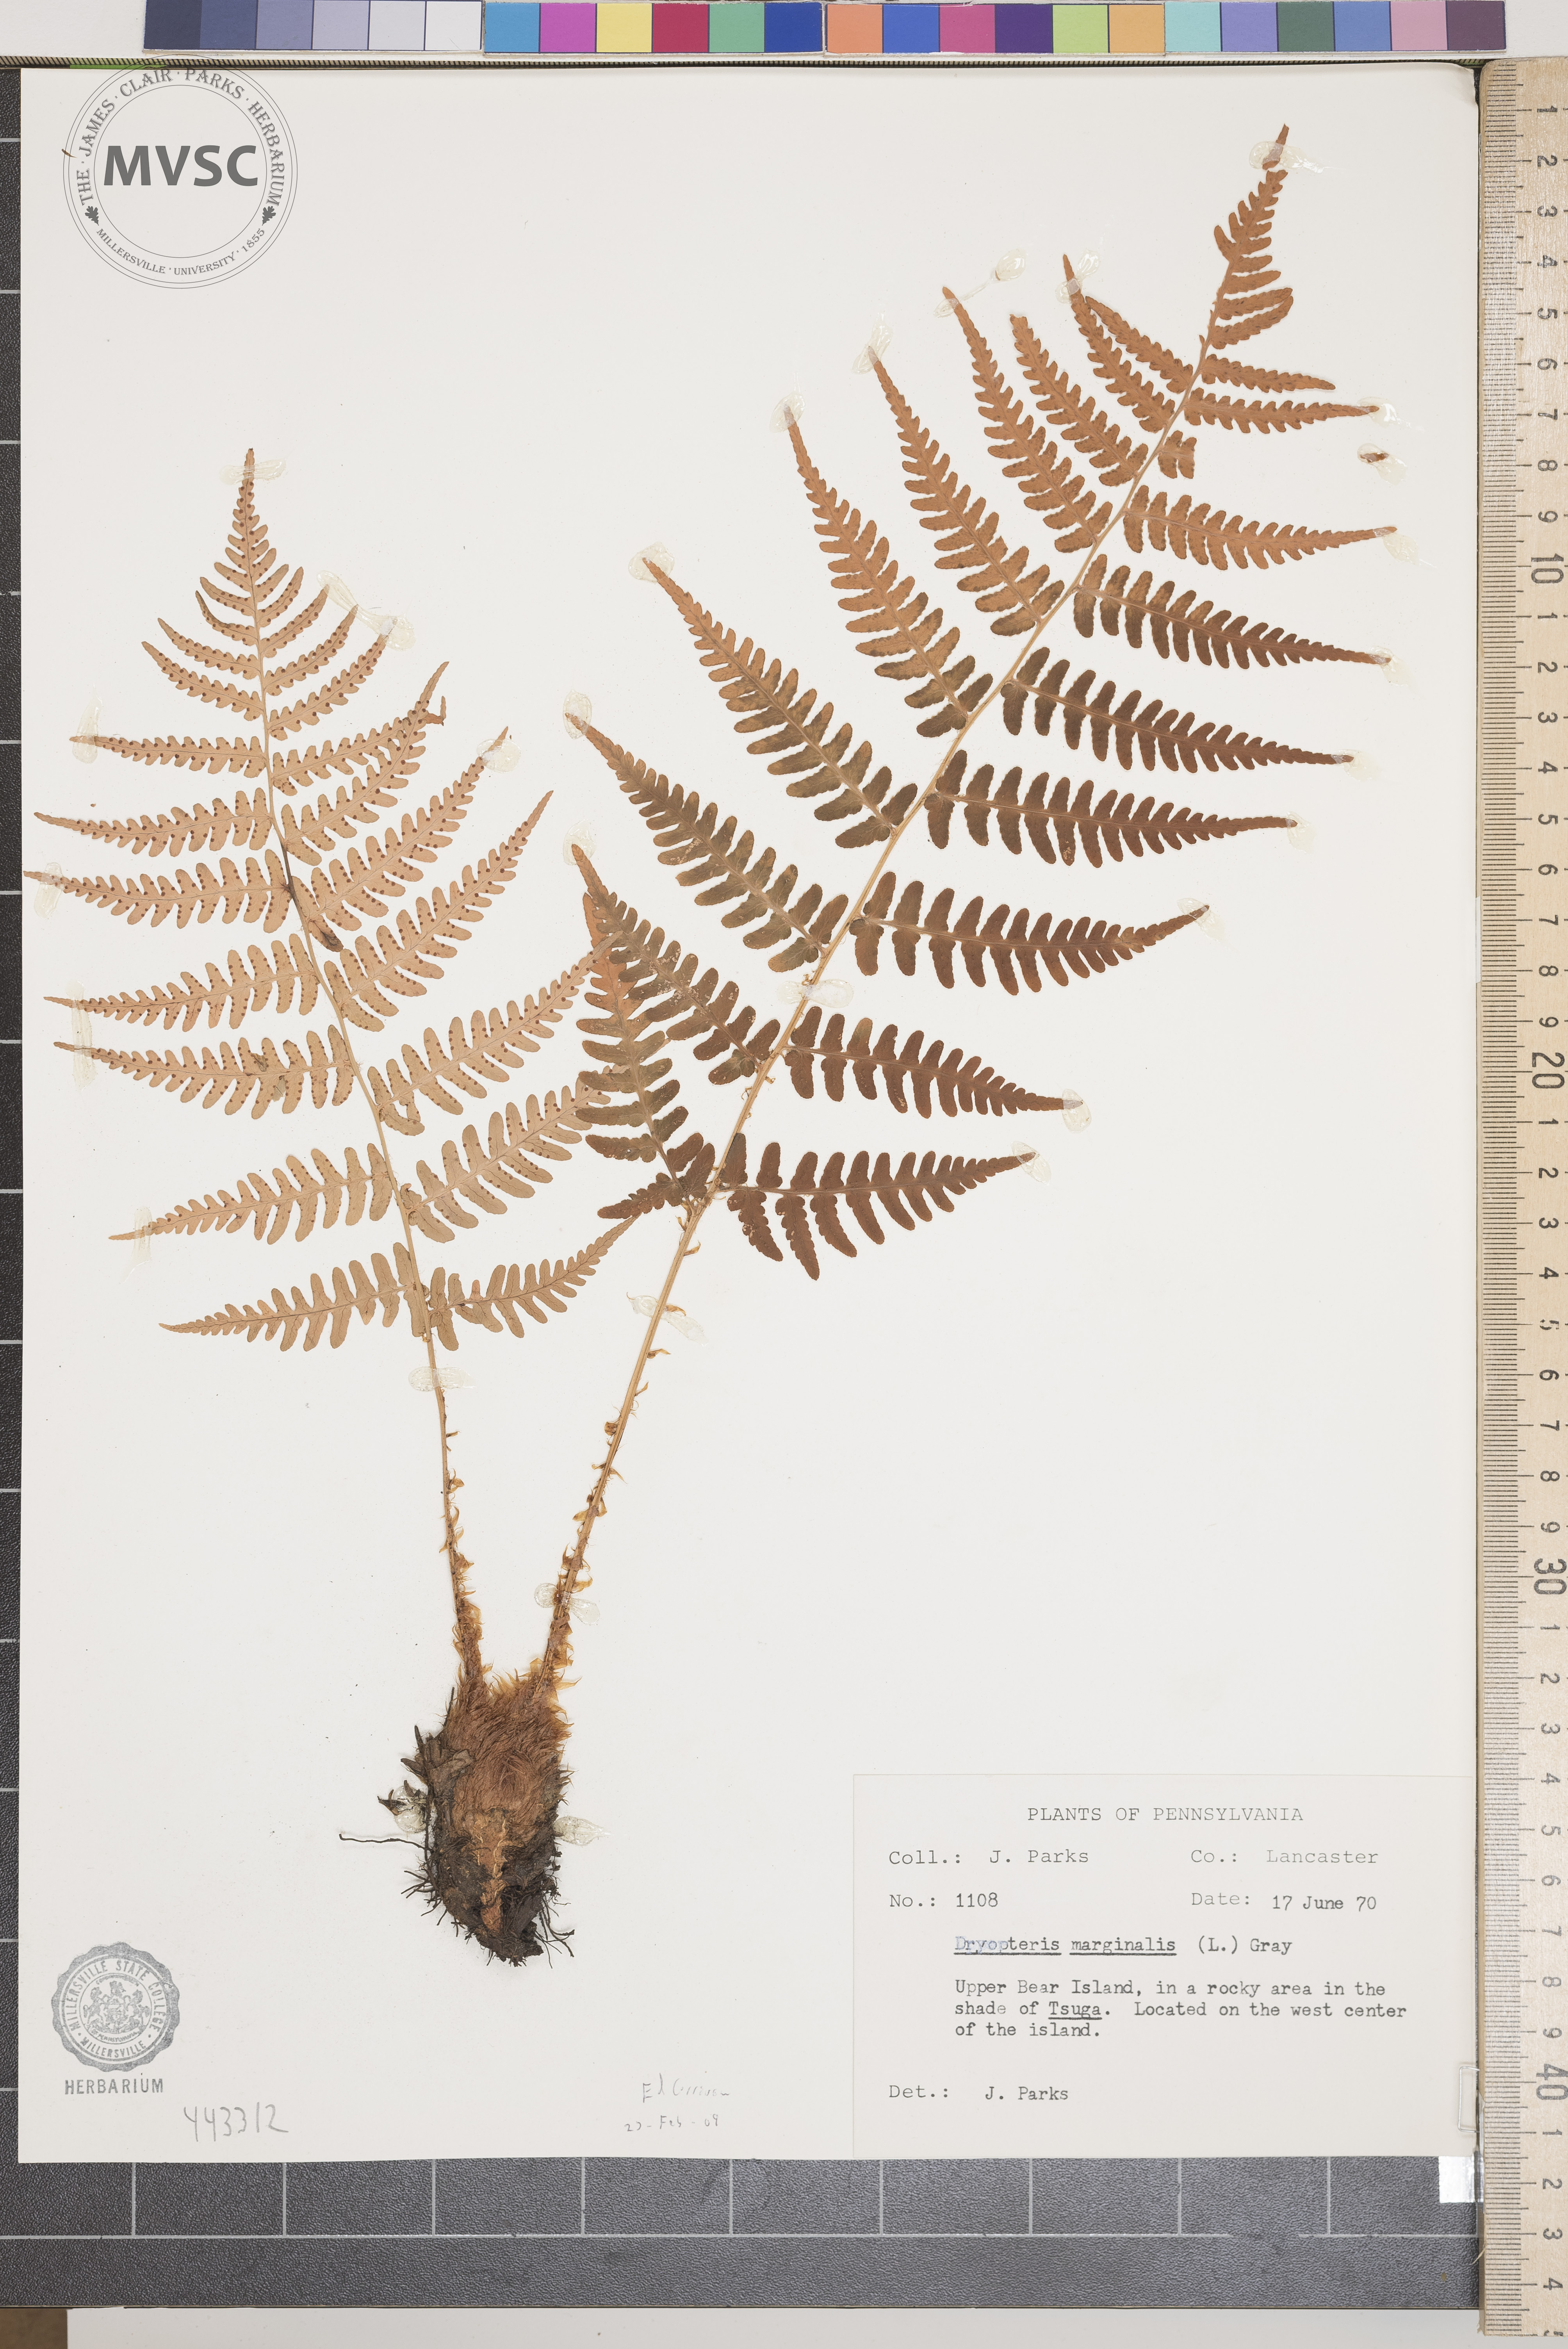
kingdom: Plantae
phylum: Tracheophyta
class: Polypodiopsida
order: Polypodiales
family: Dryopteridaceae
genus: Dryopteris
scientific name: Dryopteris marginalis
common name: Marginal wood fern
